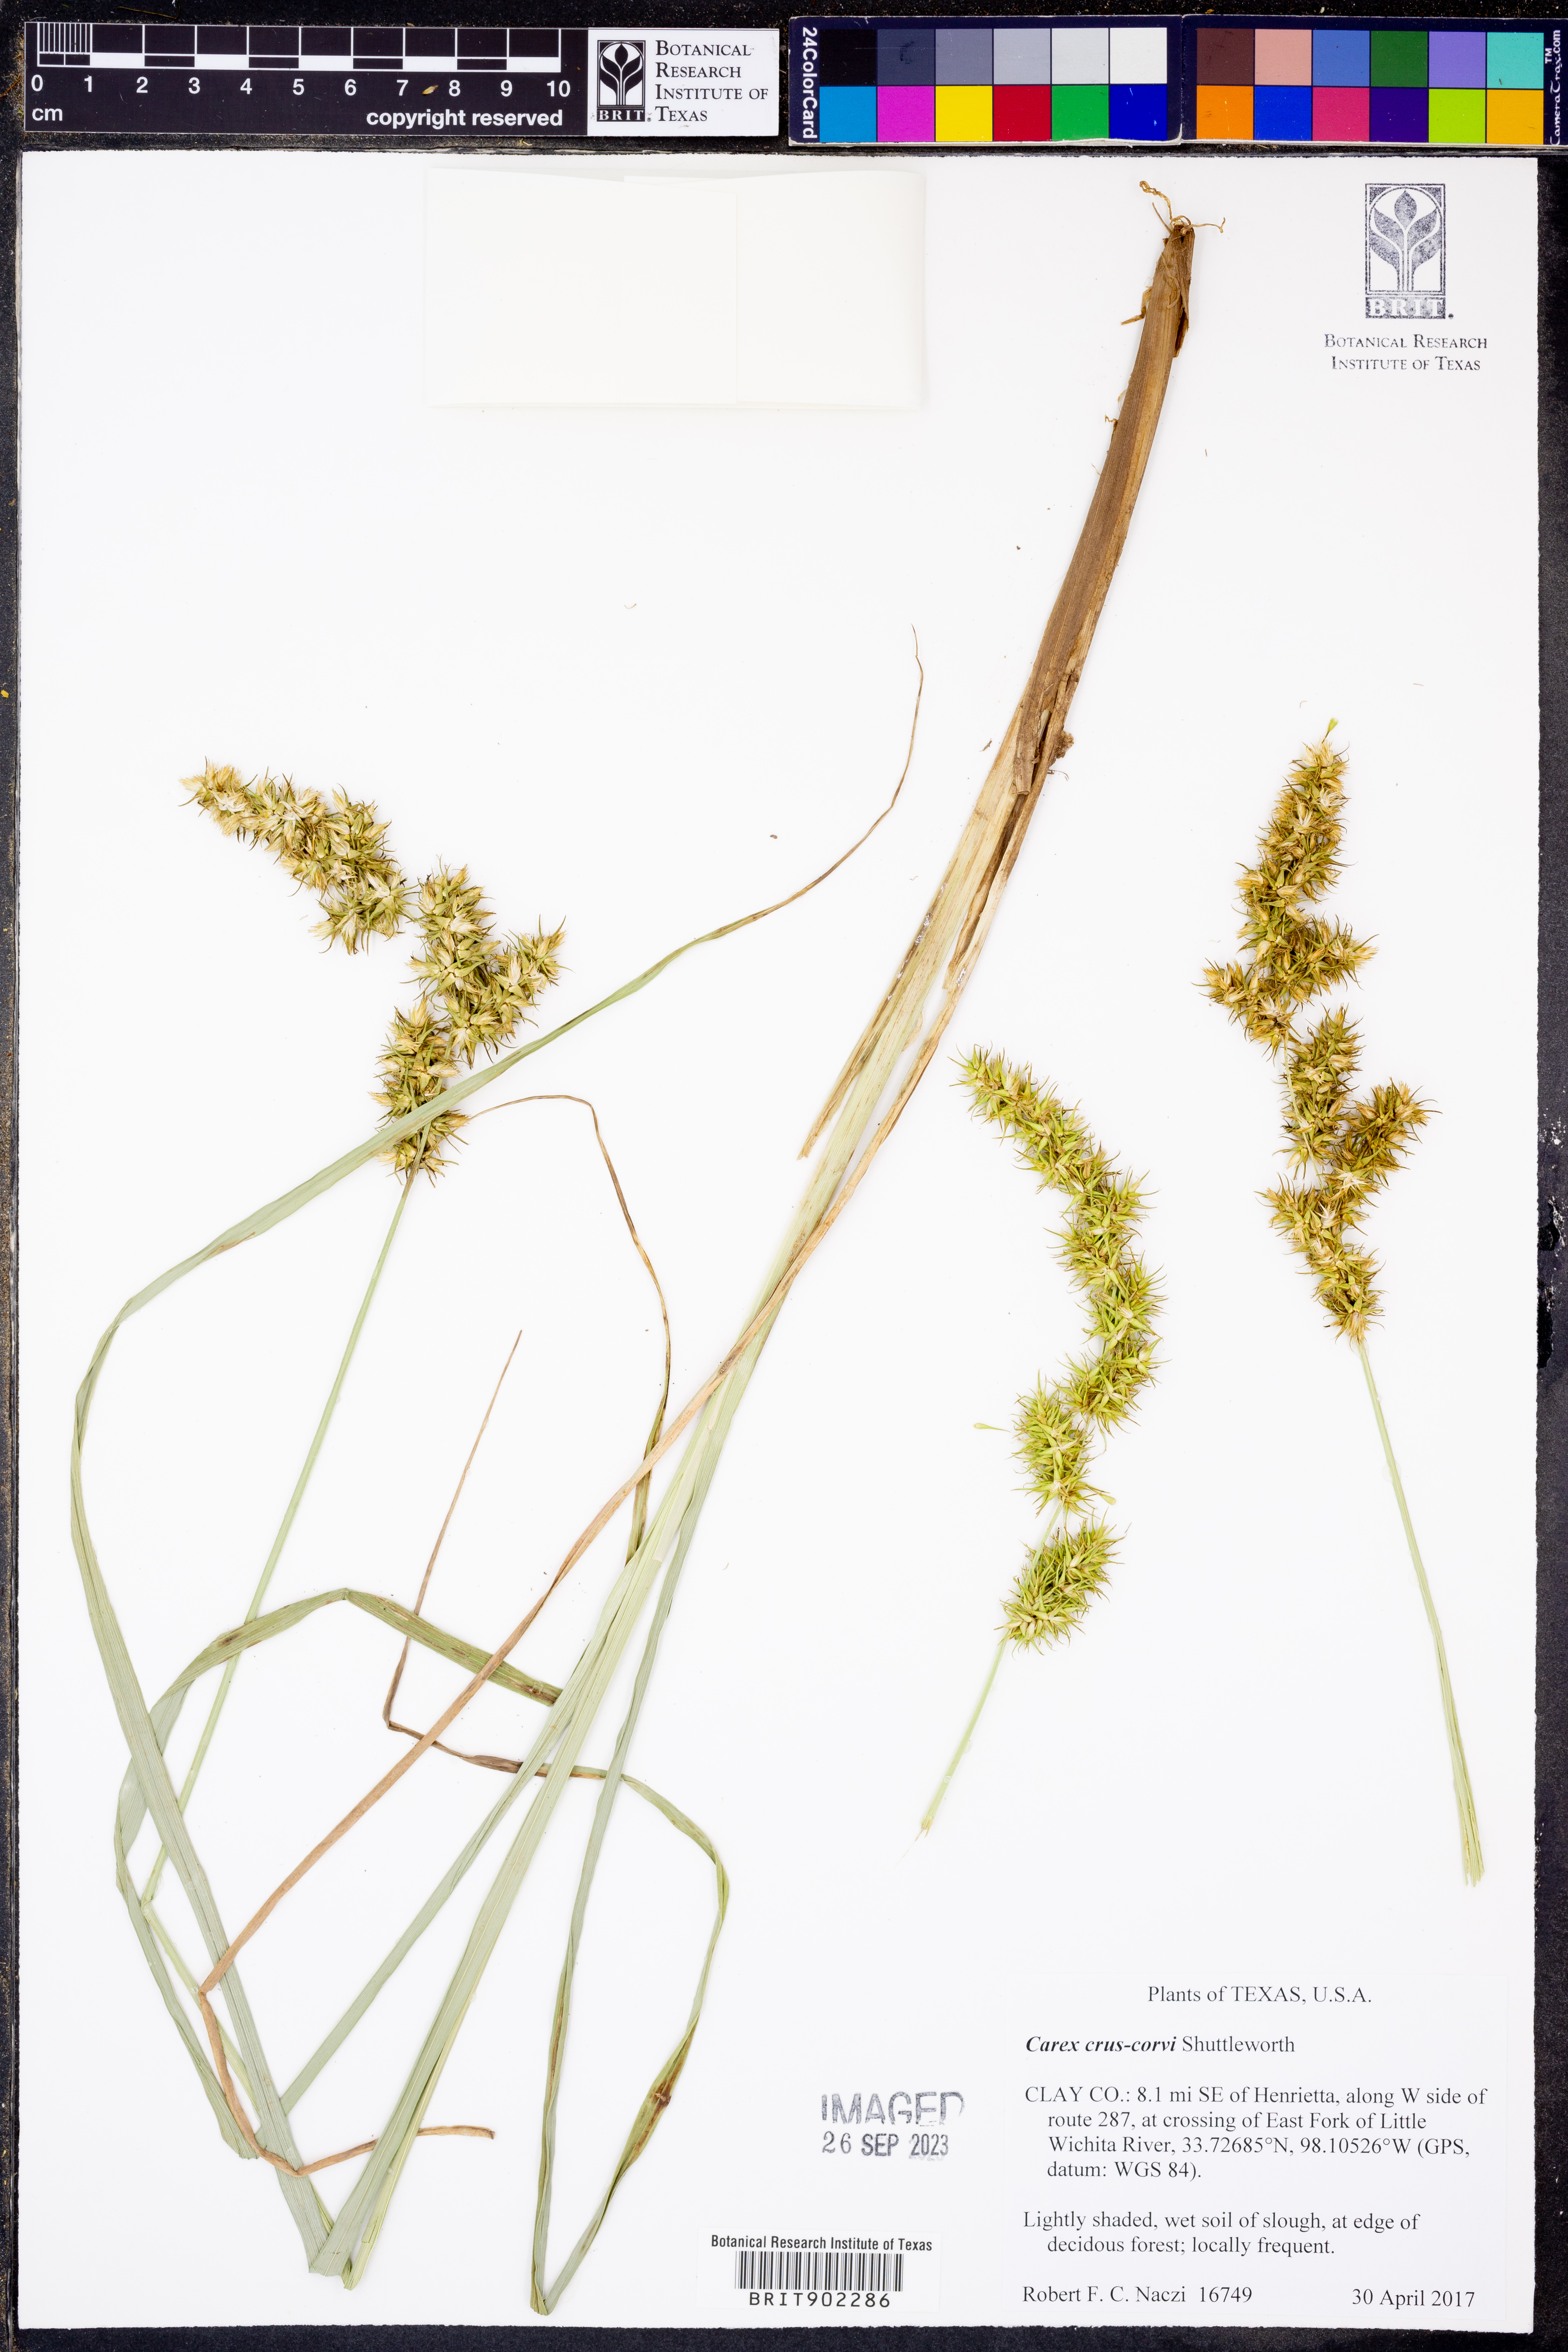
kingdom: Plantae
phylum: Tracheophyta
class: Liliopsida
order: Poales
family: Cyperaceae
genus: Carex
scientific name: Carex crus-corvi
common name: Crow-spur sedge
